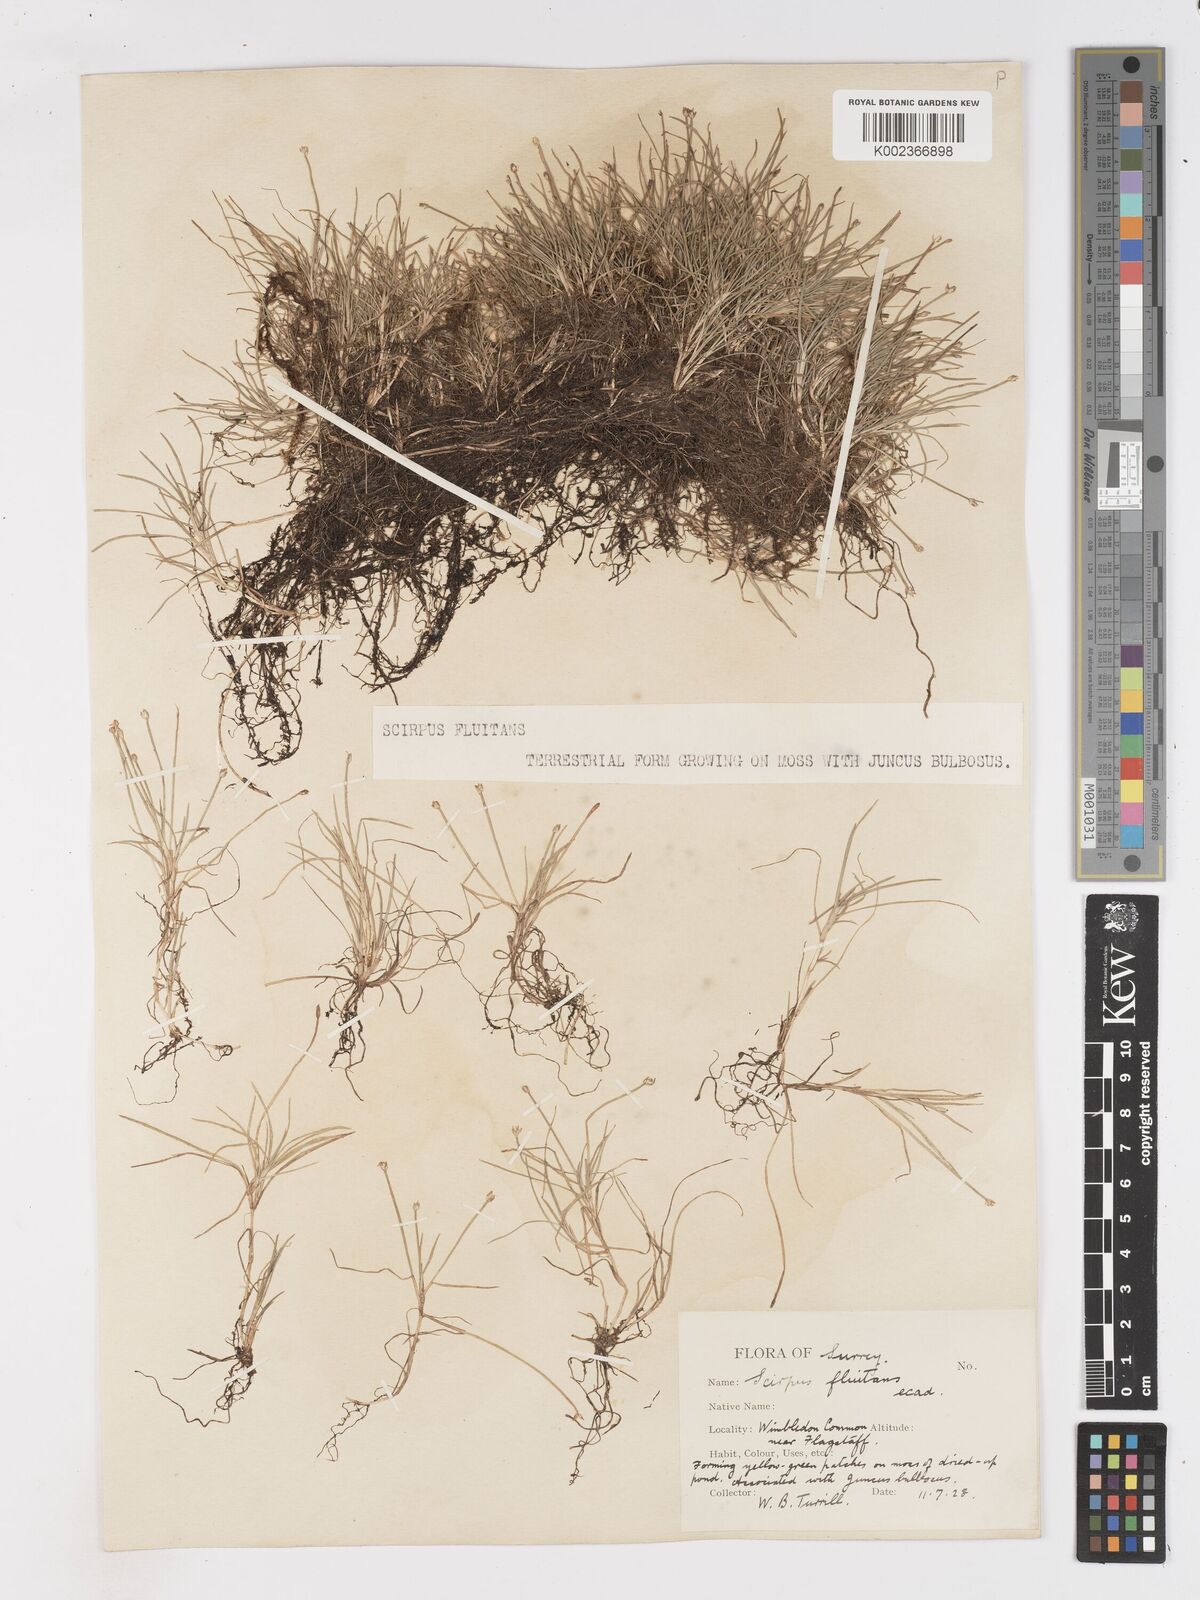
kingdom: Plantae
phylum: Tracheophyta
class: Liliopsida
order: Poales
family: Cyperaceae
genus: Isolepis
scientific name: Isolepis fluitans
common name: Floating club-rush
